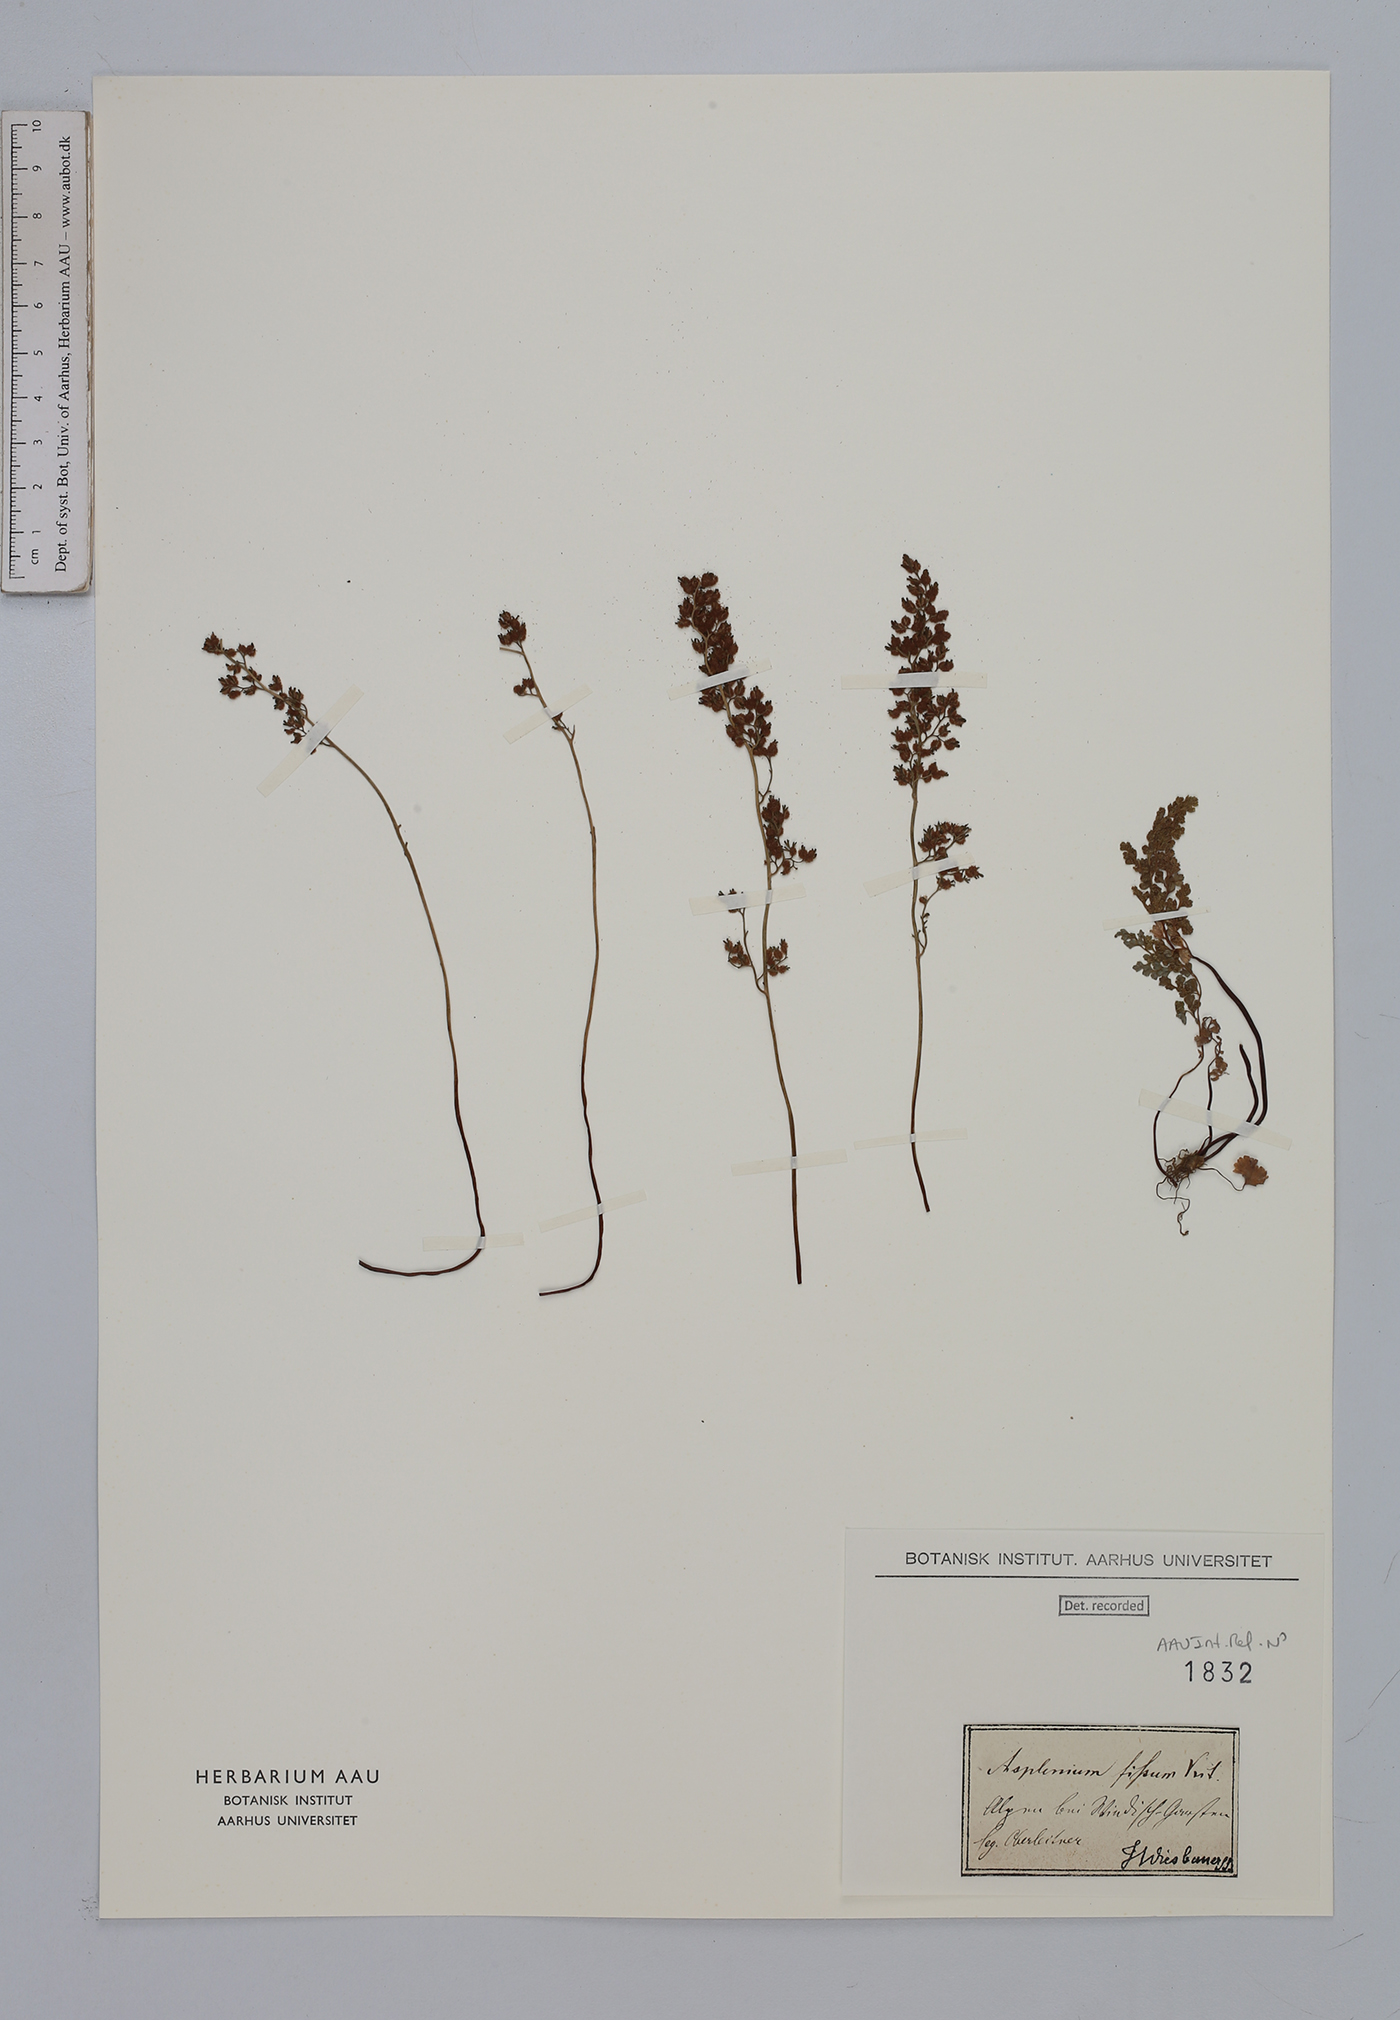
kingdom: Plantae
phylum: Tracheophyta
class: Polypodiopsida
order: Polypodiales
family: Aspleniaceae
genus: Asplenium
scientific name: Asplenium fissum
